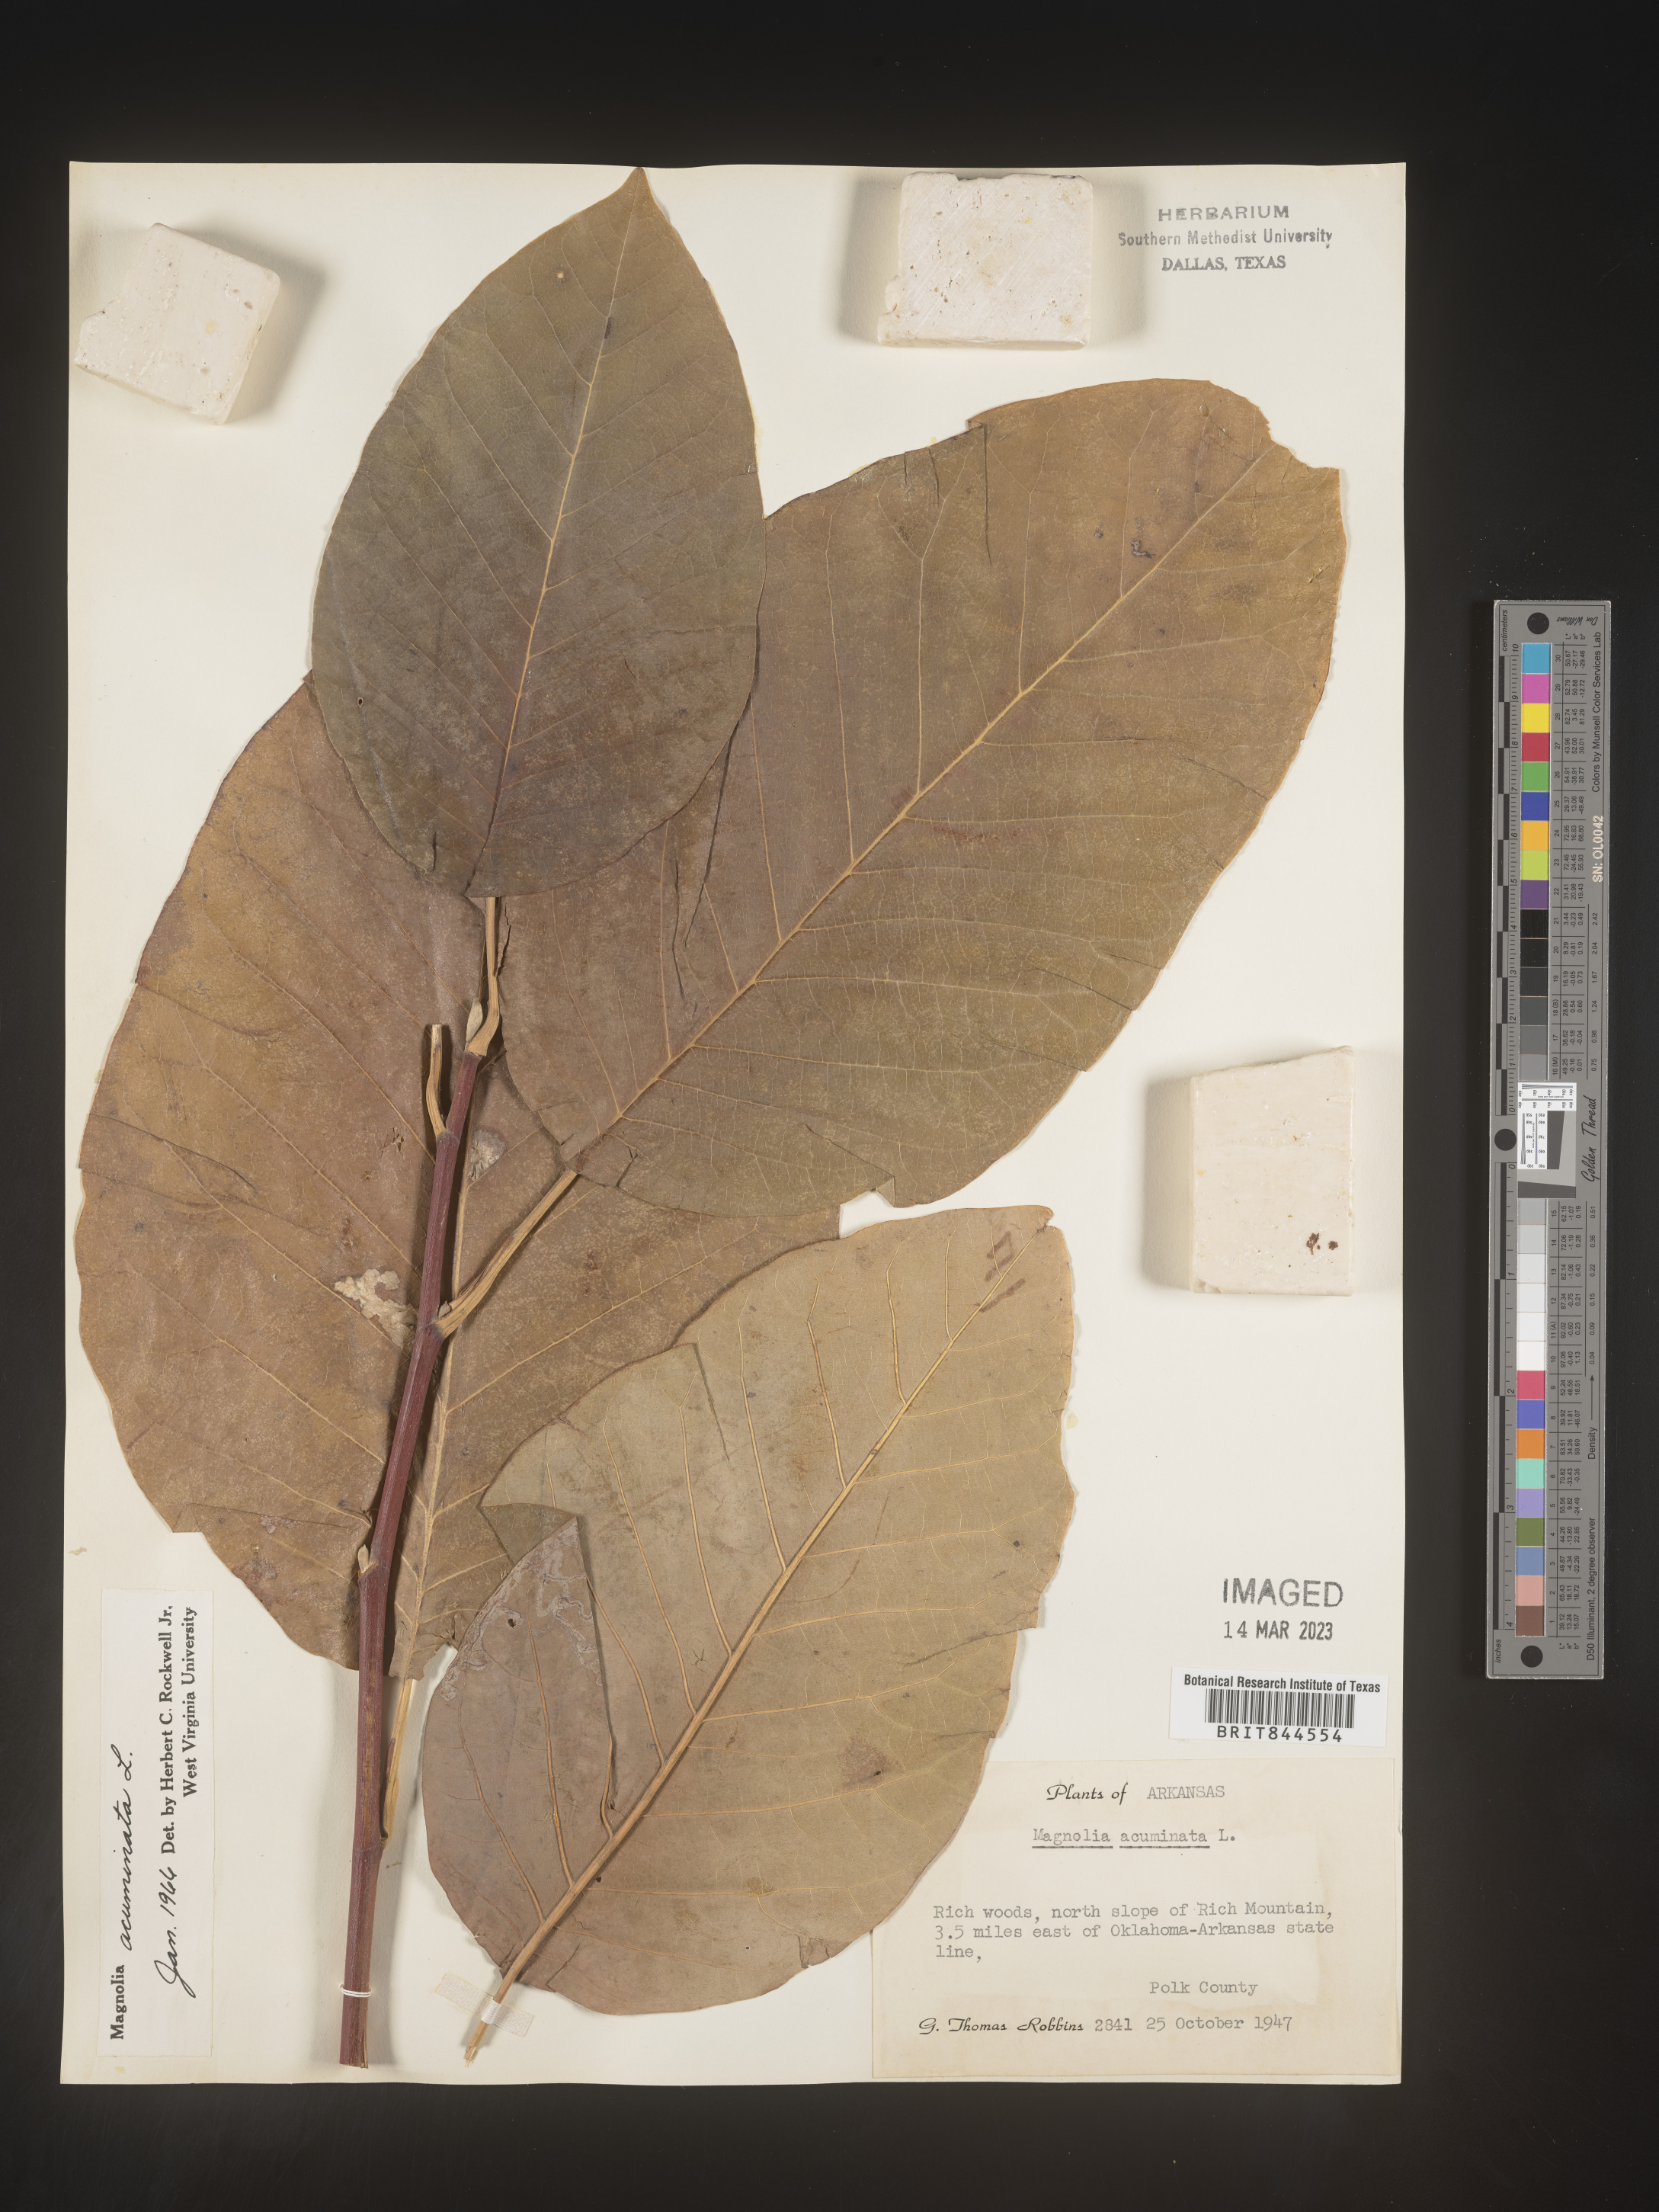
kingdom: Plantae
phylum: Tracheophyta
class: Magnoliopsida
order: Magnoliales
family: Magnoliaceae
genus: Magnolia
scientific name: Magnolia acuminata
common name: Cucumber magnolia
